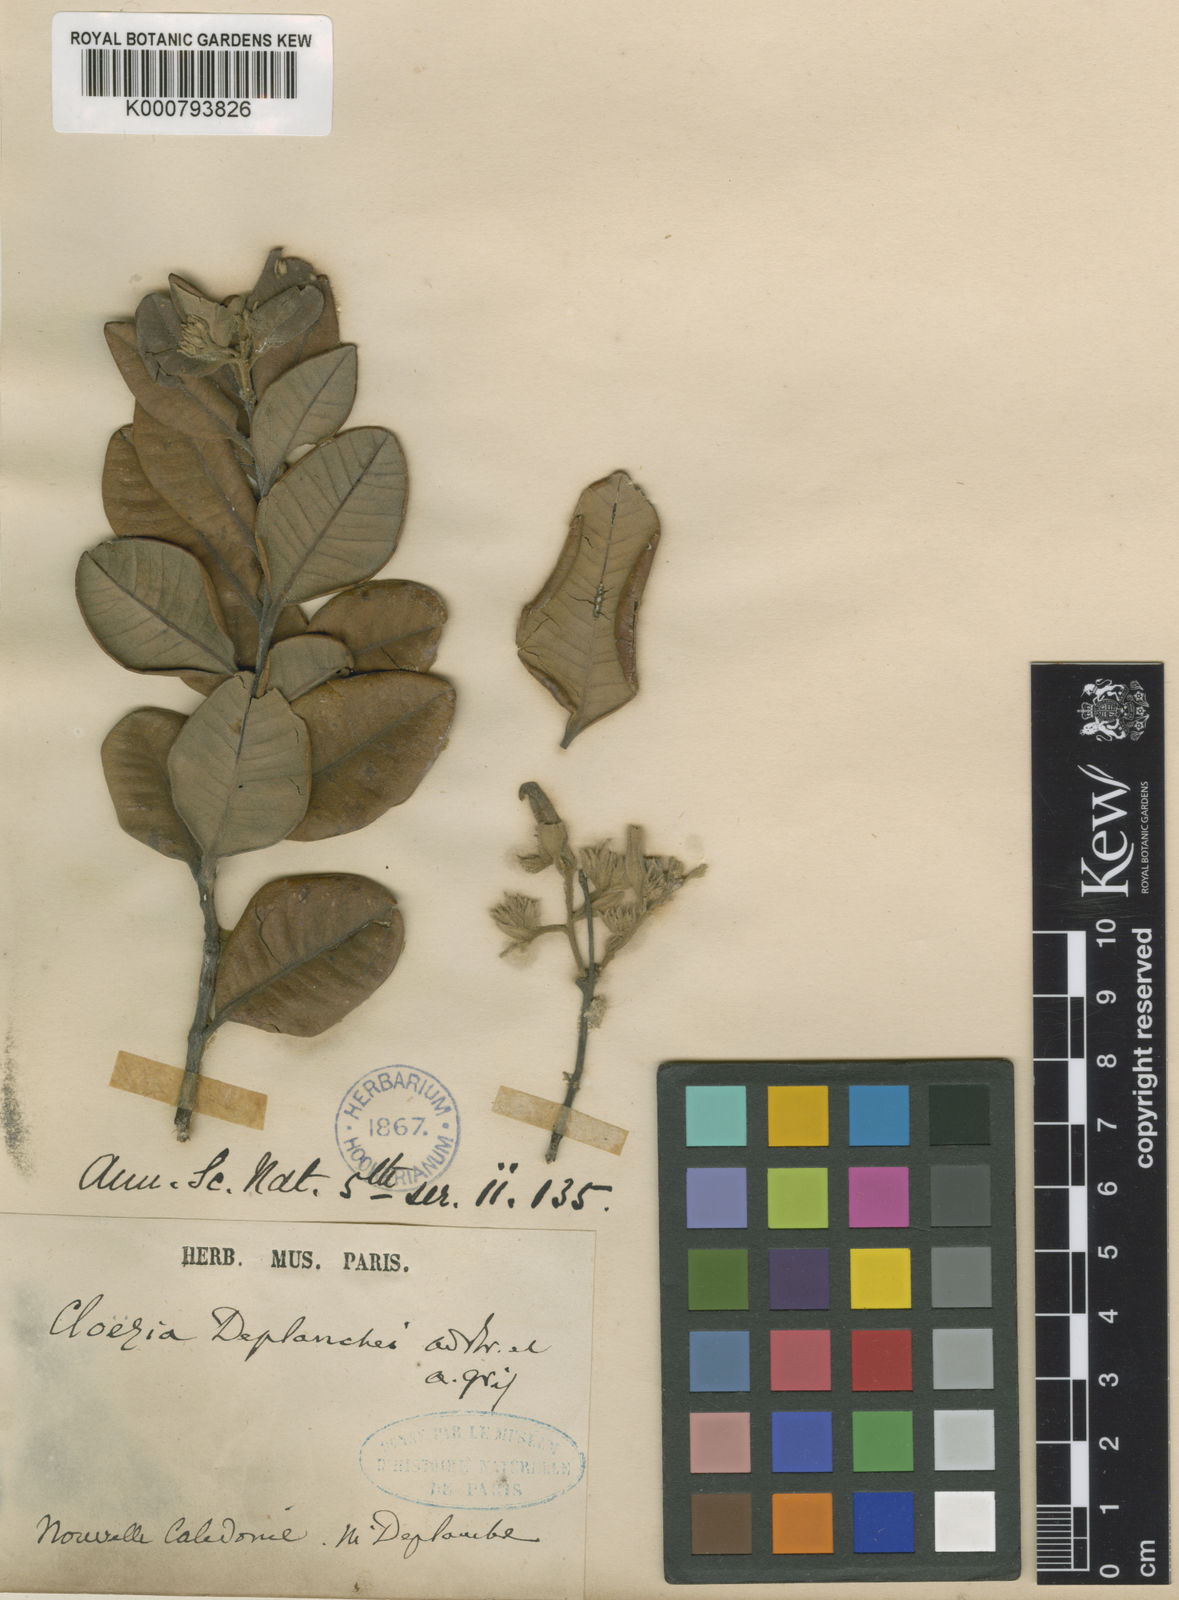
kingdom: Plantae
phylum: Tracheophyta
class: Magnoliopsida
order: Myrtales
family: Myrtaceae
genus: Cloezia
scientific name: Cloezia deplanchei
